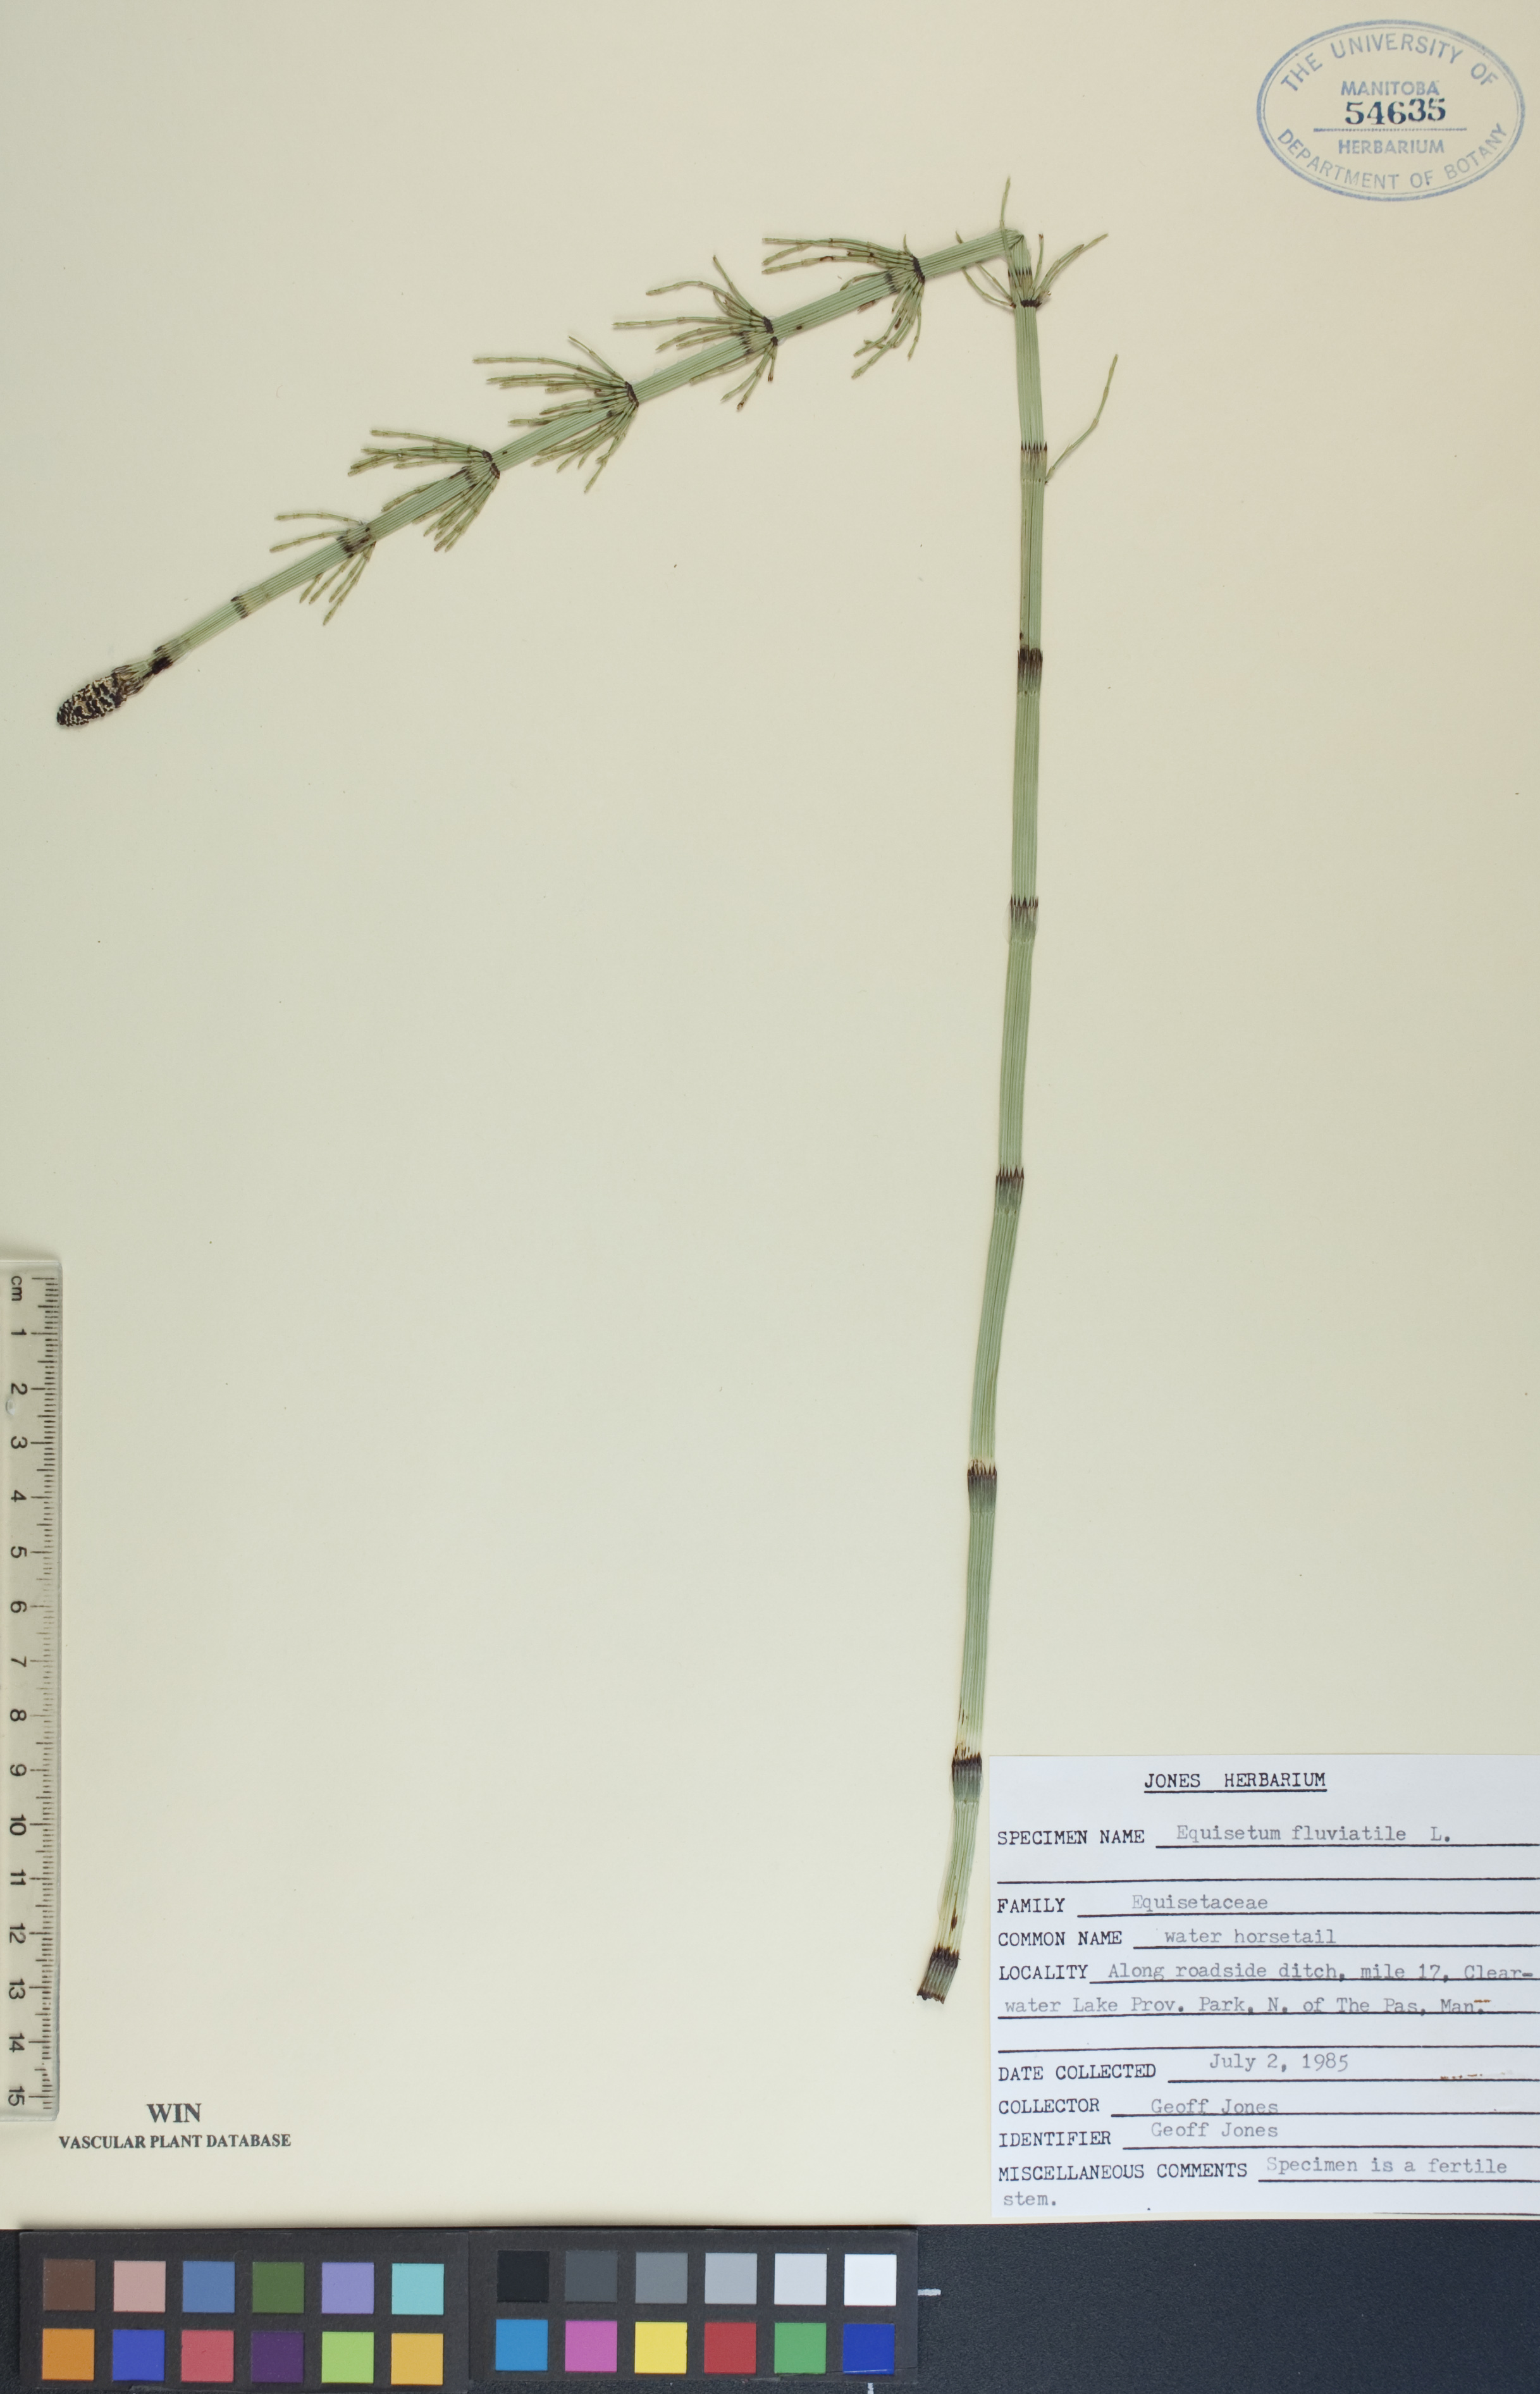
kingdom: Plantae
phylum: Tracheophyta
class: Polypodiopsida
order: Equisetales
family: Equisetaceae
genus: Equisetum
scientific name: Equisetum fluviatile
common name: Water horsetail
